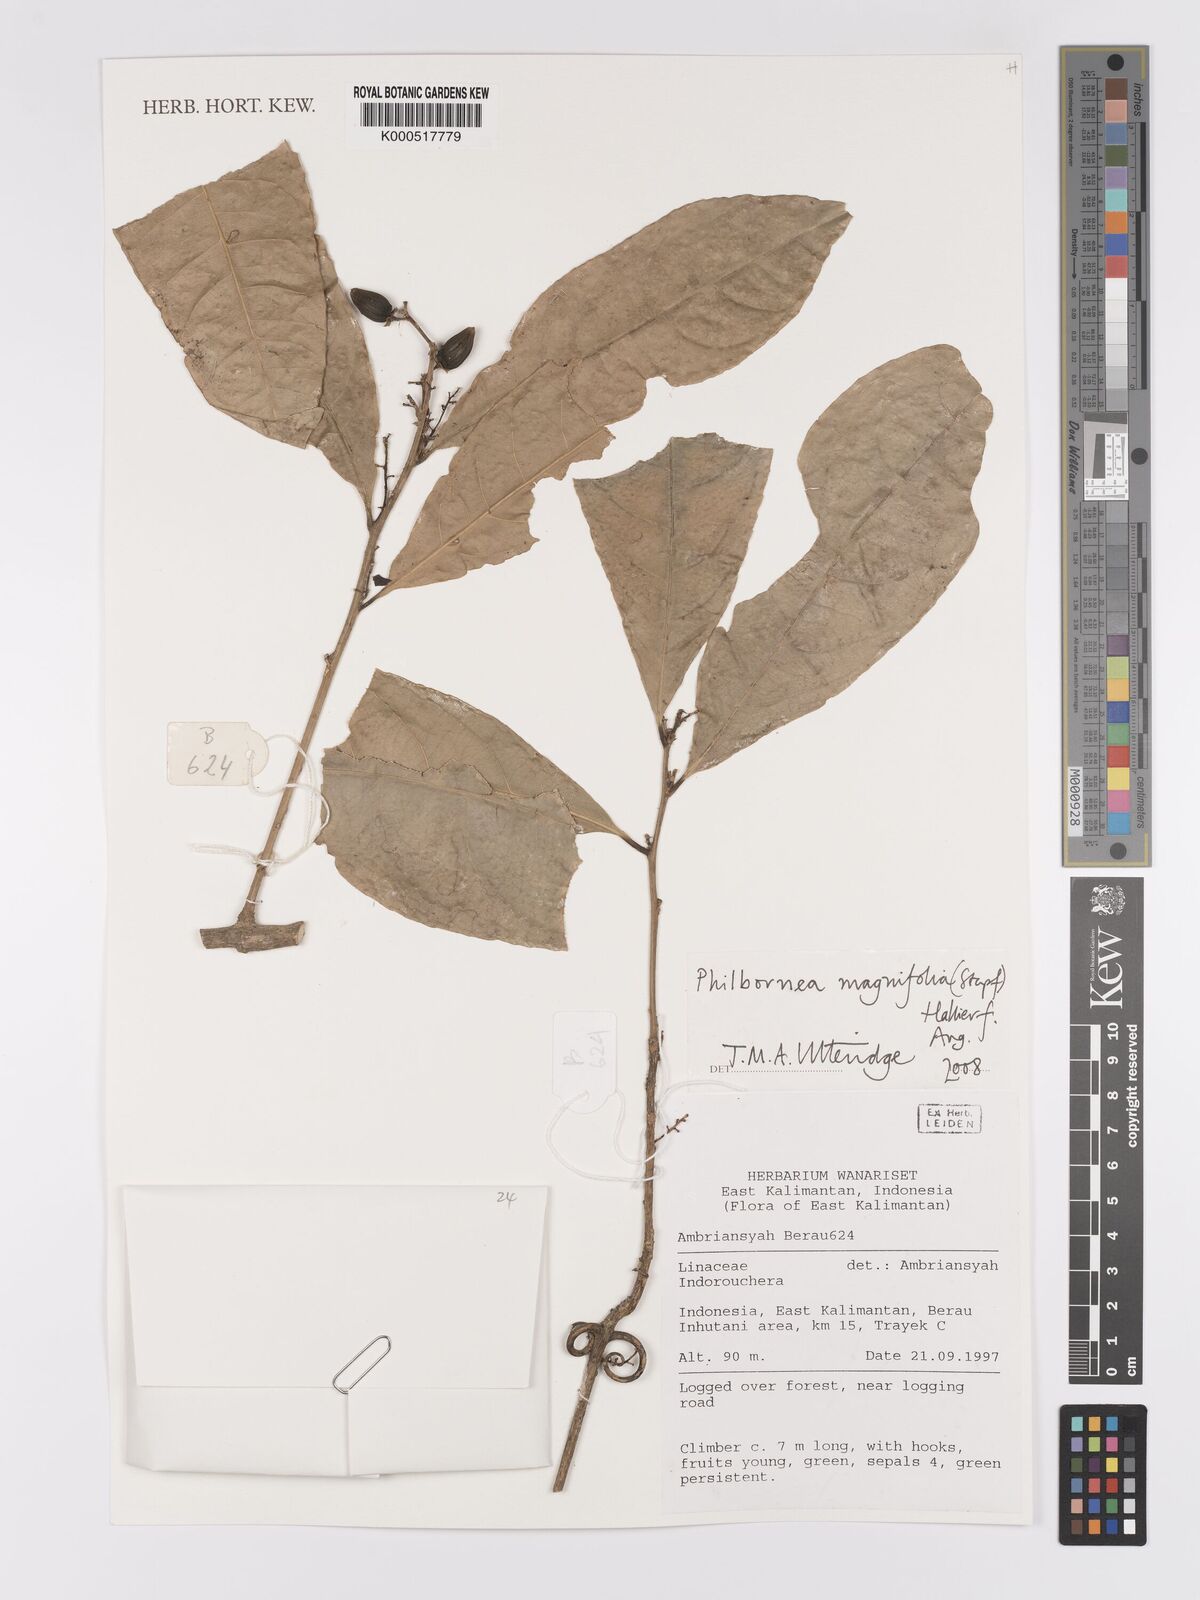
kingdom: Plantae
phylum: Tracheophyta
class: Magnoliopsida
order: Malpighiales
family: Linaceae
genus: Philbornea
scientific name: Philbornea magnifolia
